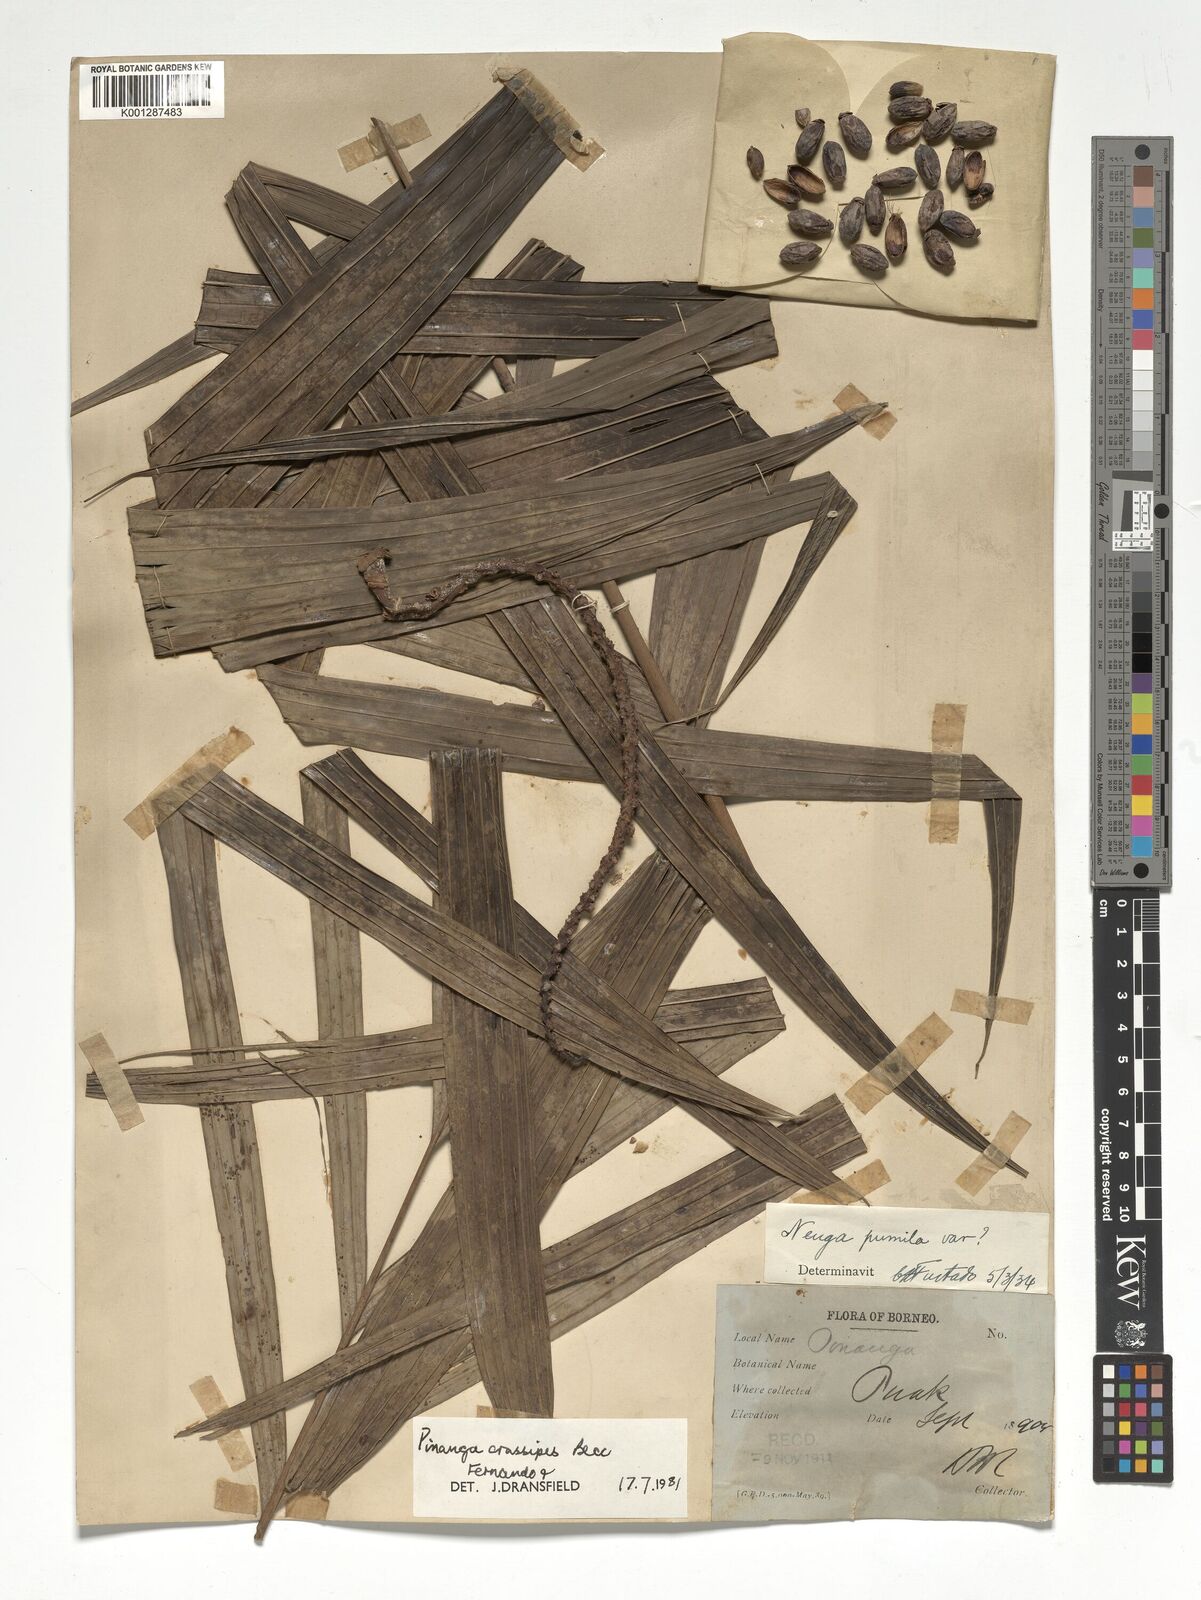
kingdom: Plantae
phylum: Tracheophyta
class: Liliopsida
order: Arecales
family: Arecaceae
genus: Pinanga
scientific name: Pinanga crassipes
